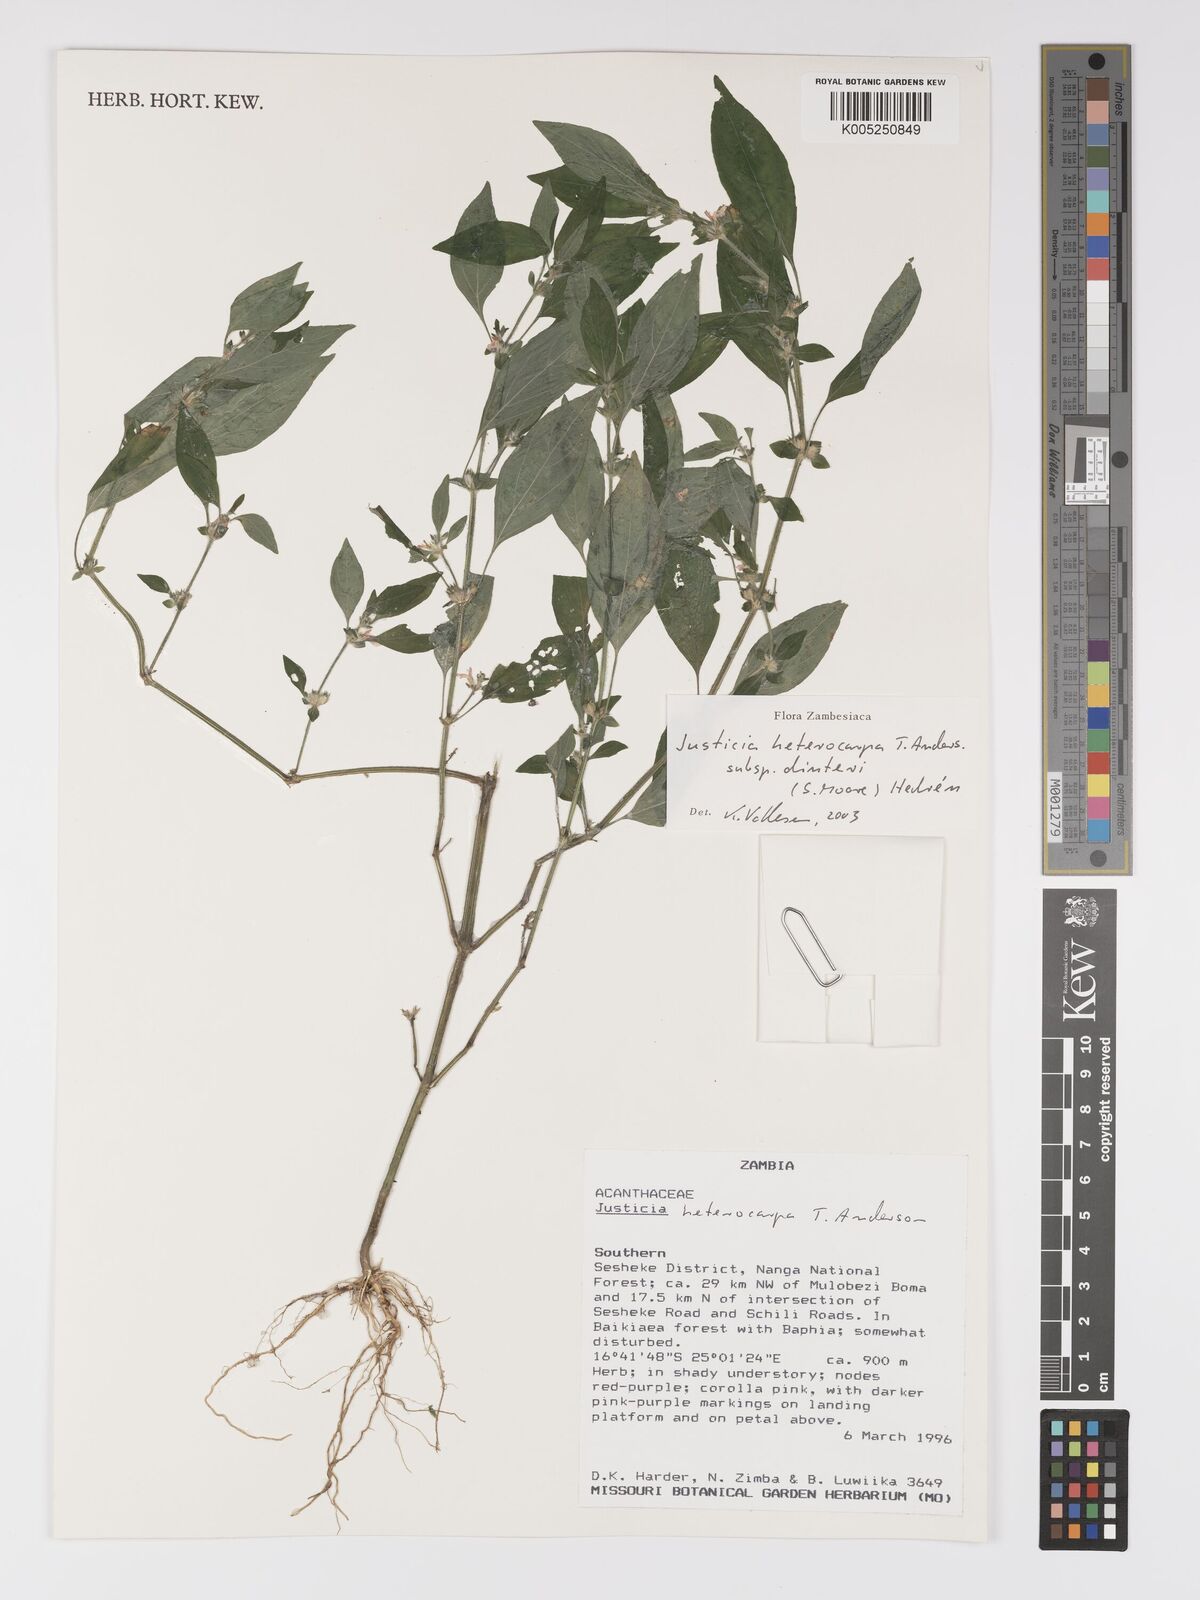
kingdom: Plantae
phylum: Tracheophyta
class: Magnoliopsida
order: Lamiales
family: Acanthaceae
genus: Justicia
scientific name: Justicia heterocarpa
